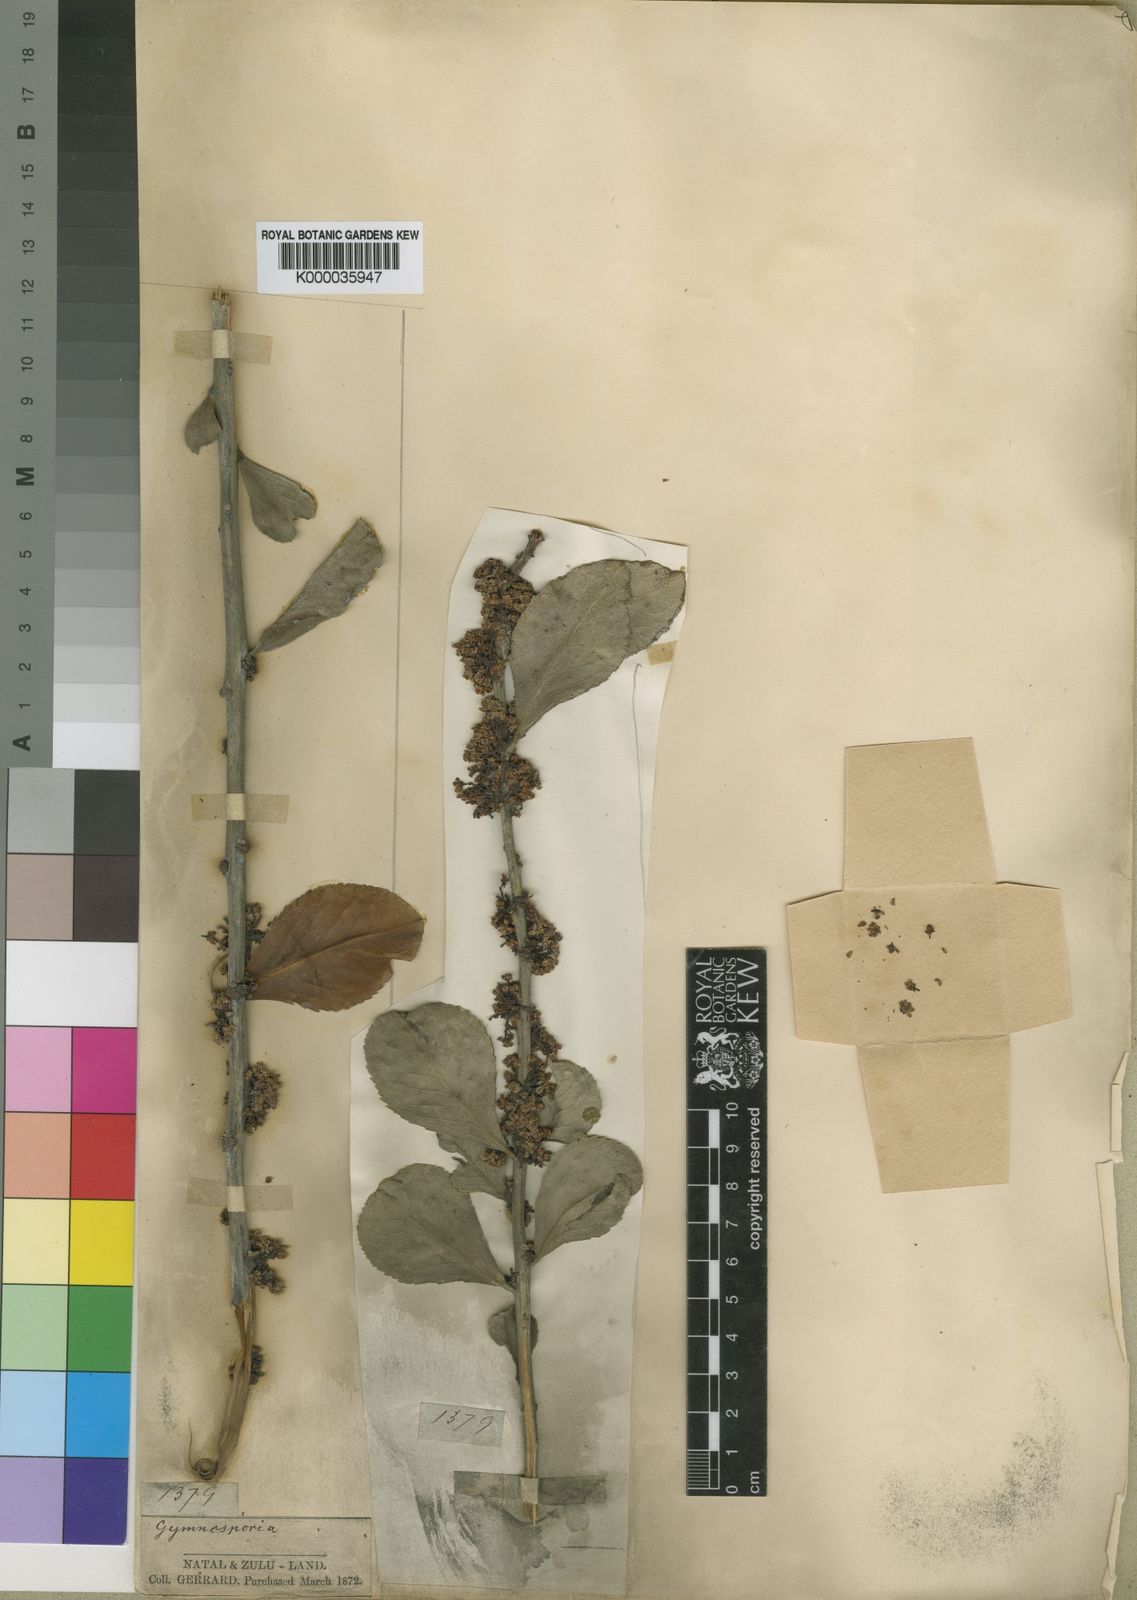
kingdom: Plantae
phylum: Tracheophyta
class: Magnoliopsida
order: Celastrales
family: Celastraceae
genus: Maytenus
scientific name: Maytenus
